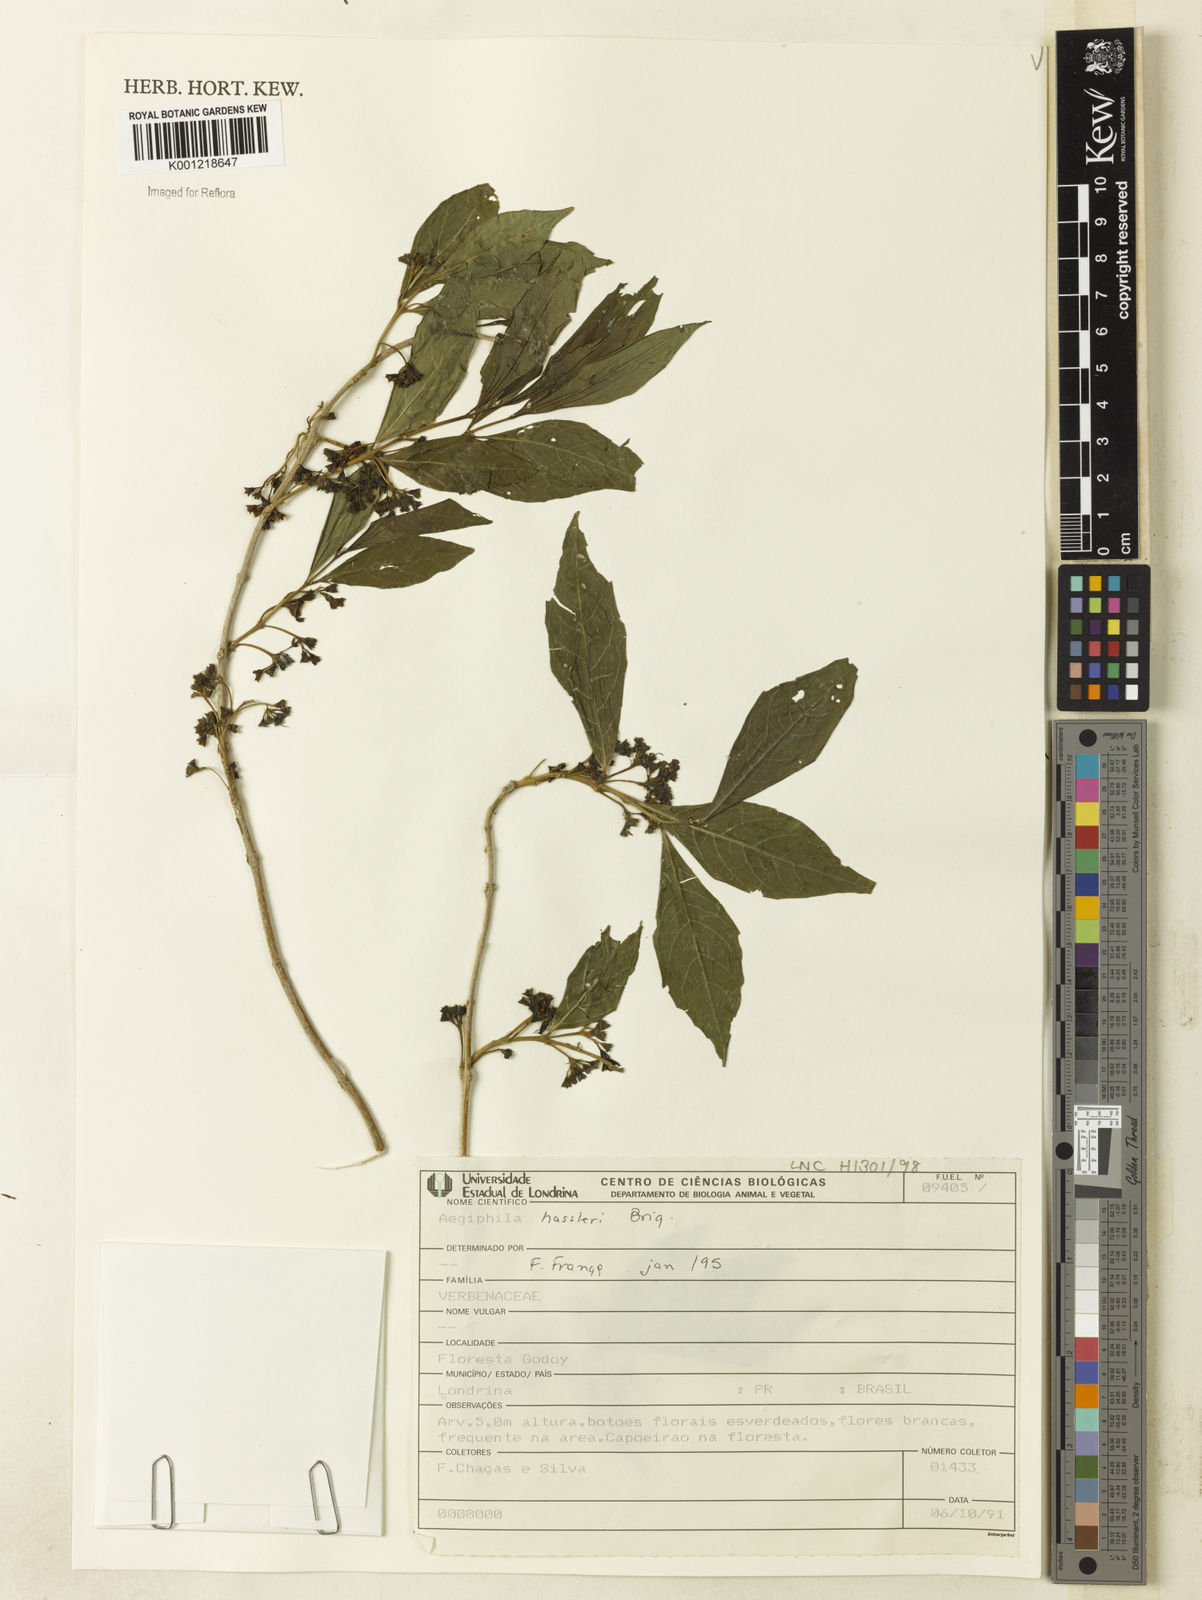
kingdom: Plantae
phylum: Tracheophyta
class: Magnoliopsida
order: Lamiales
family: Lamiaceae
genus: Aegiphila
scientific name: Aegiphila brachiata
